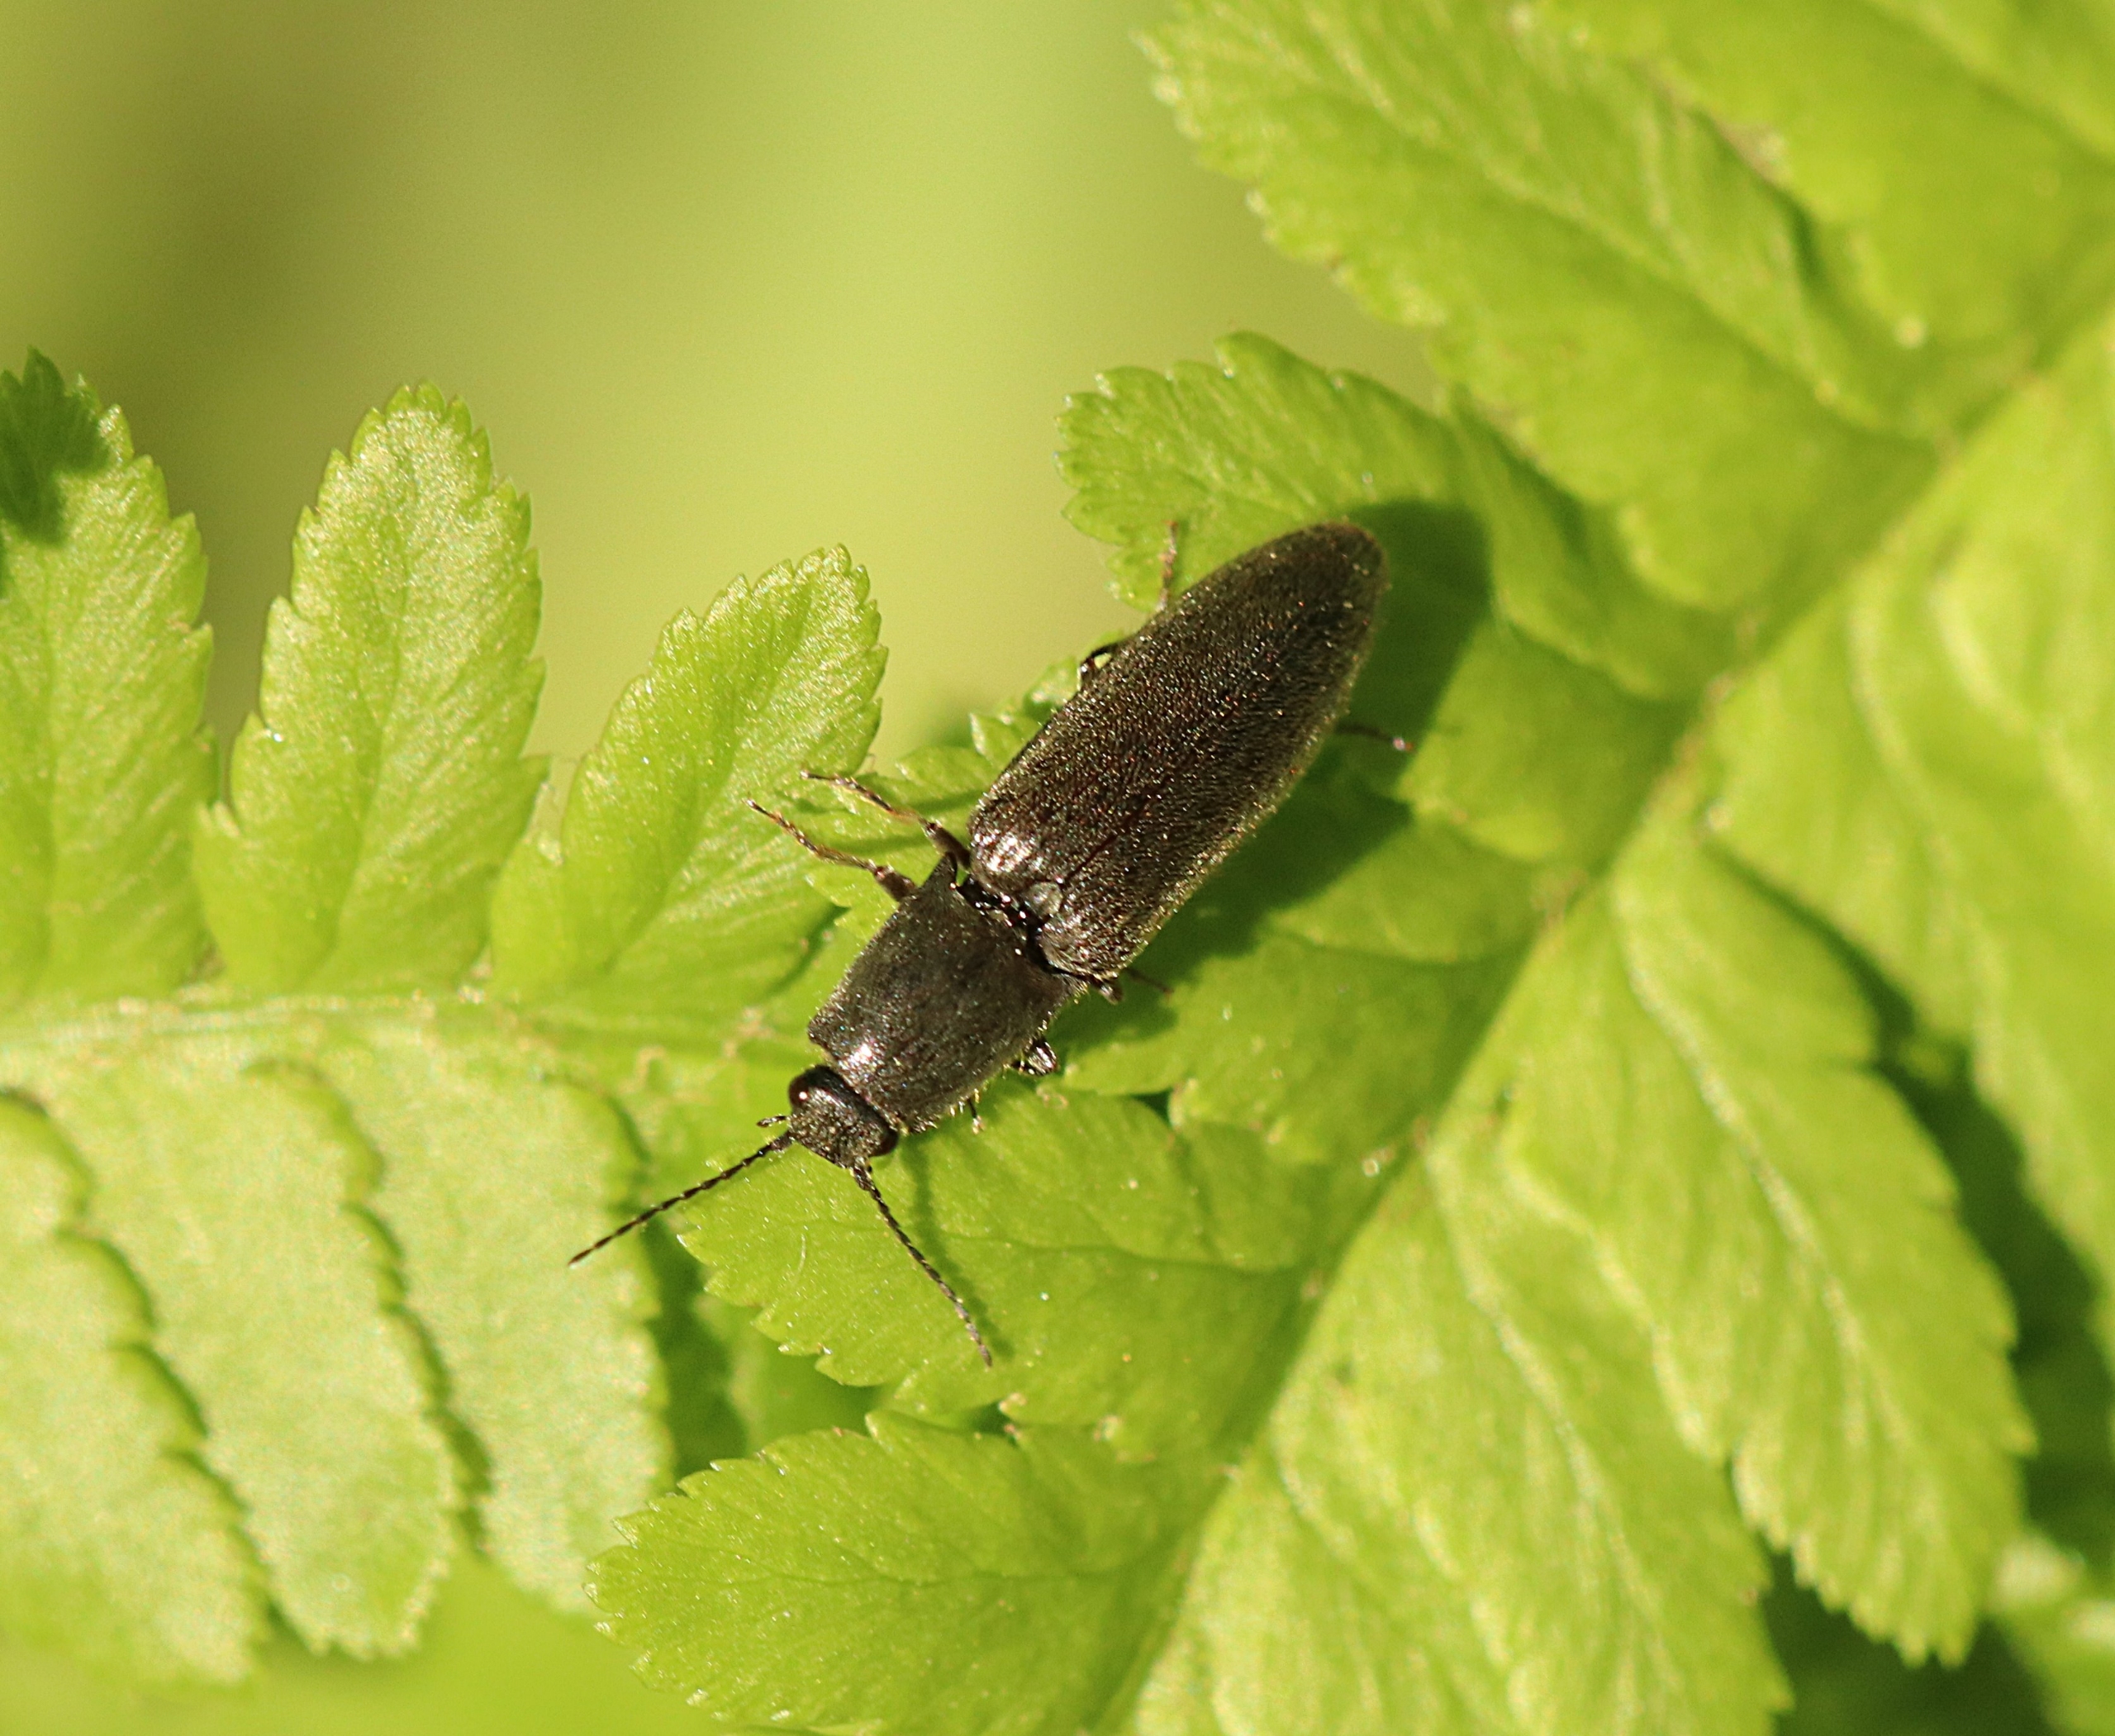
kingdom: Animalia
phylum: Arthropoda
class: Insecta
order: Coleoptera
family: Elateridae
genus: Athous
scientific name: Athous haemorrhoidalis
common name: Rødhalet busksmælder
